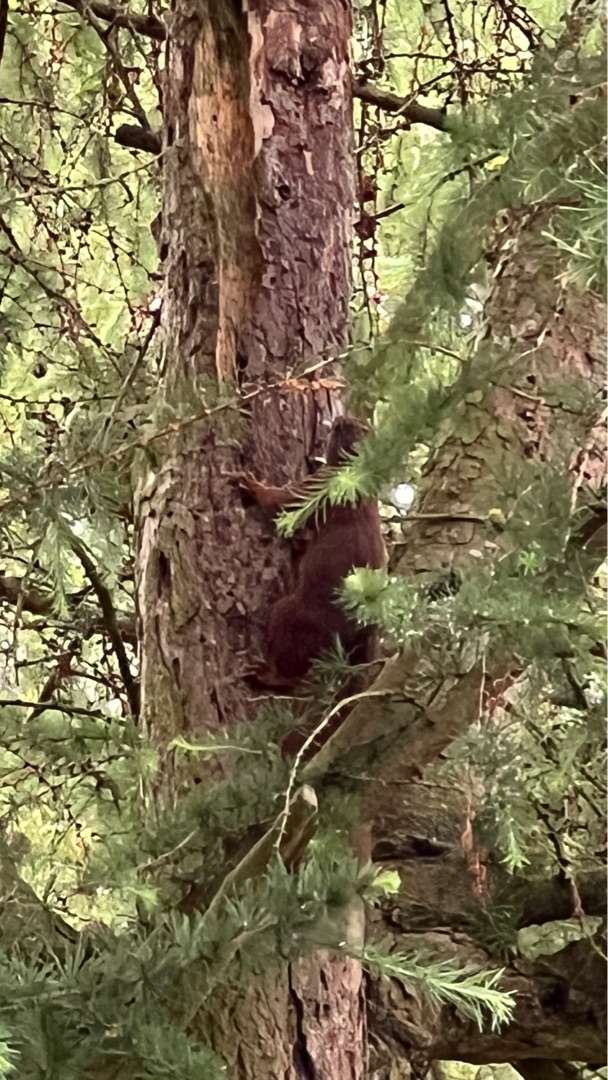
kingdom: Animalia
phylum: Chordata
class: Mammalia
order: Rodentia
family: Sciuridae
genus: Sciurus
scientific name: Sciurus vulgaris
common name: Egern
